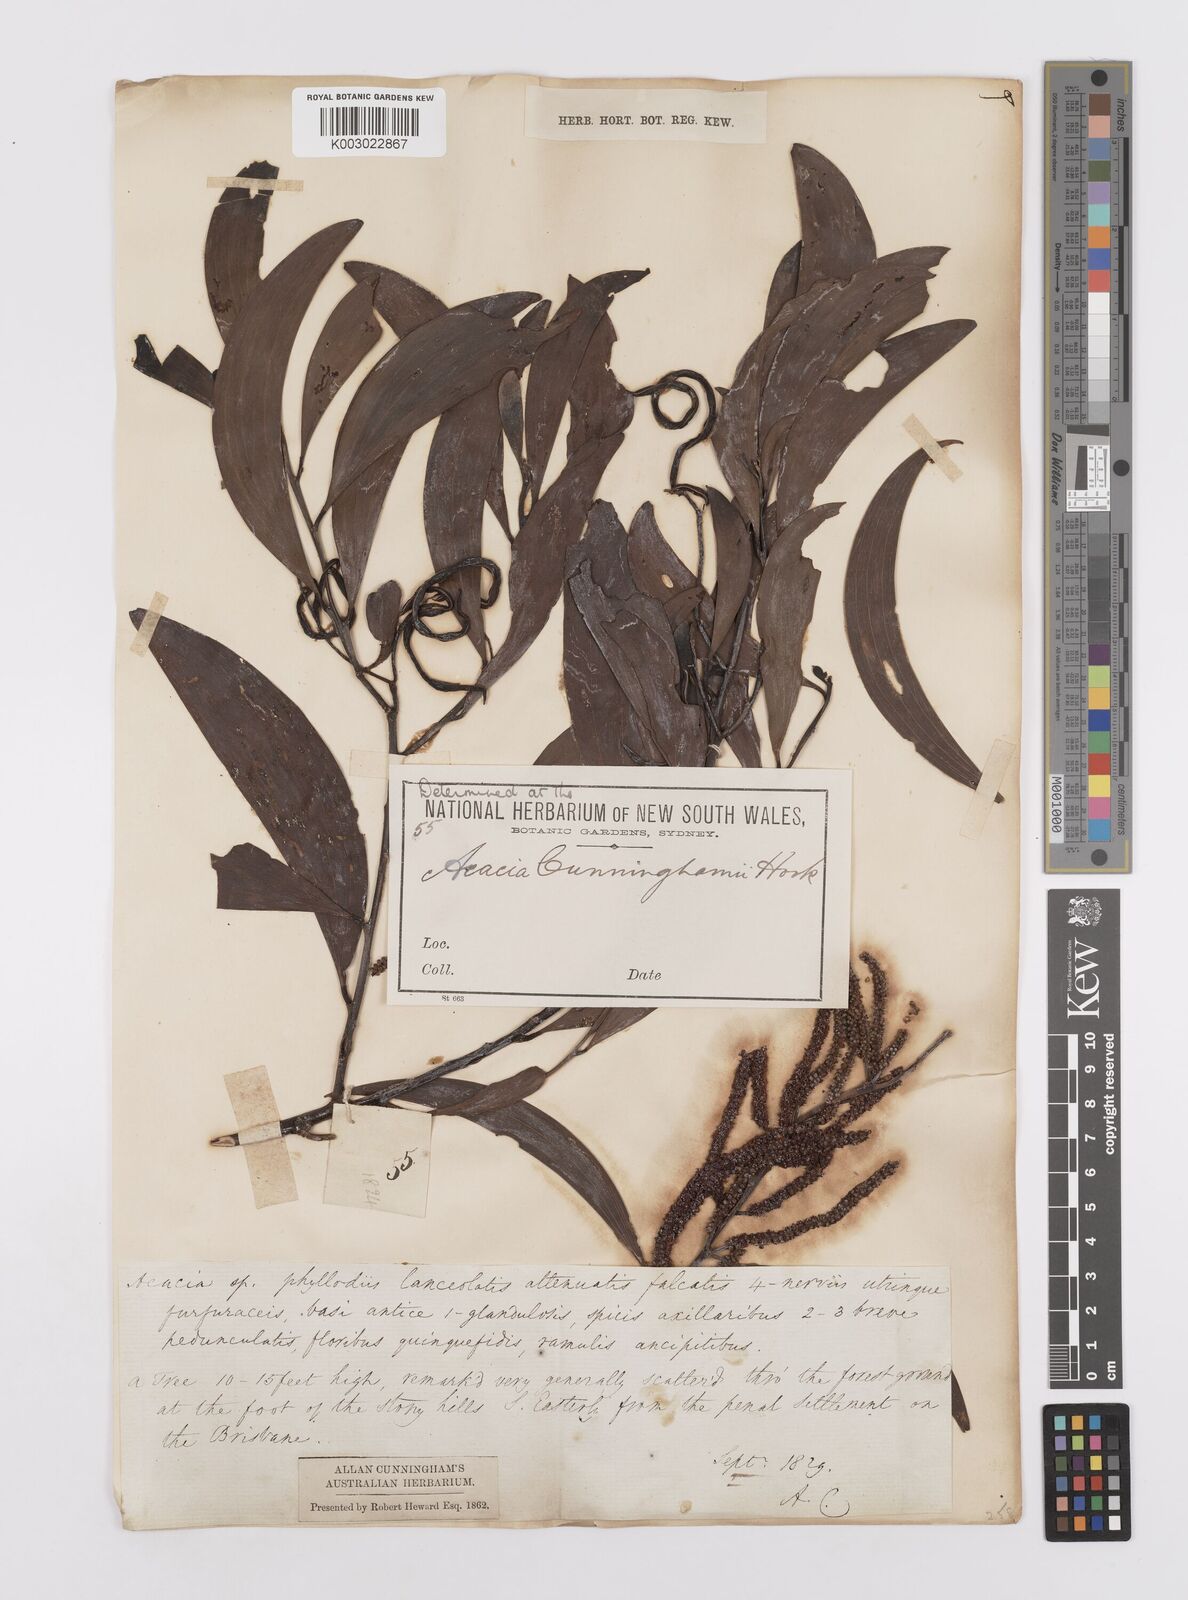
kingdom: Plantae
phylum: Tracheophyta
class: Magnoliopsida
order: Fabales
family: Fabaceae
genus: Acacia
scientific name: Acacia longispicata
